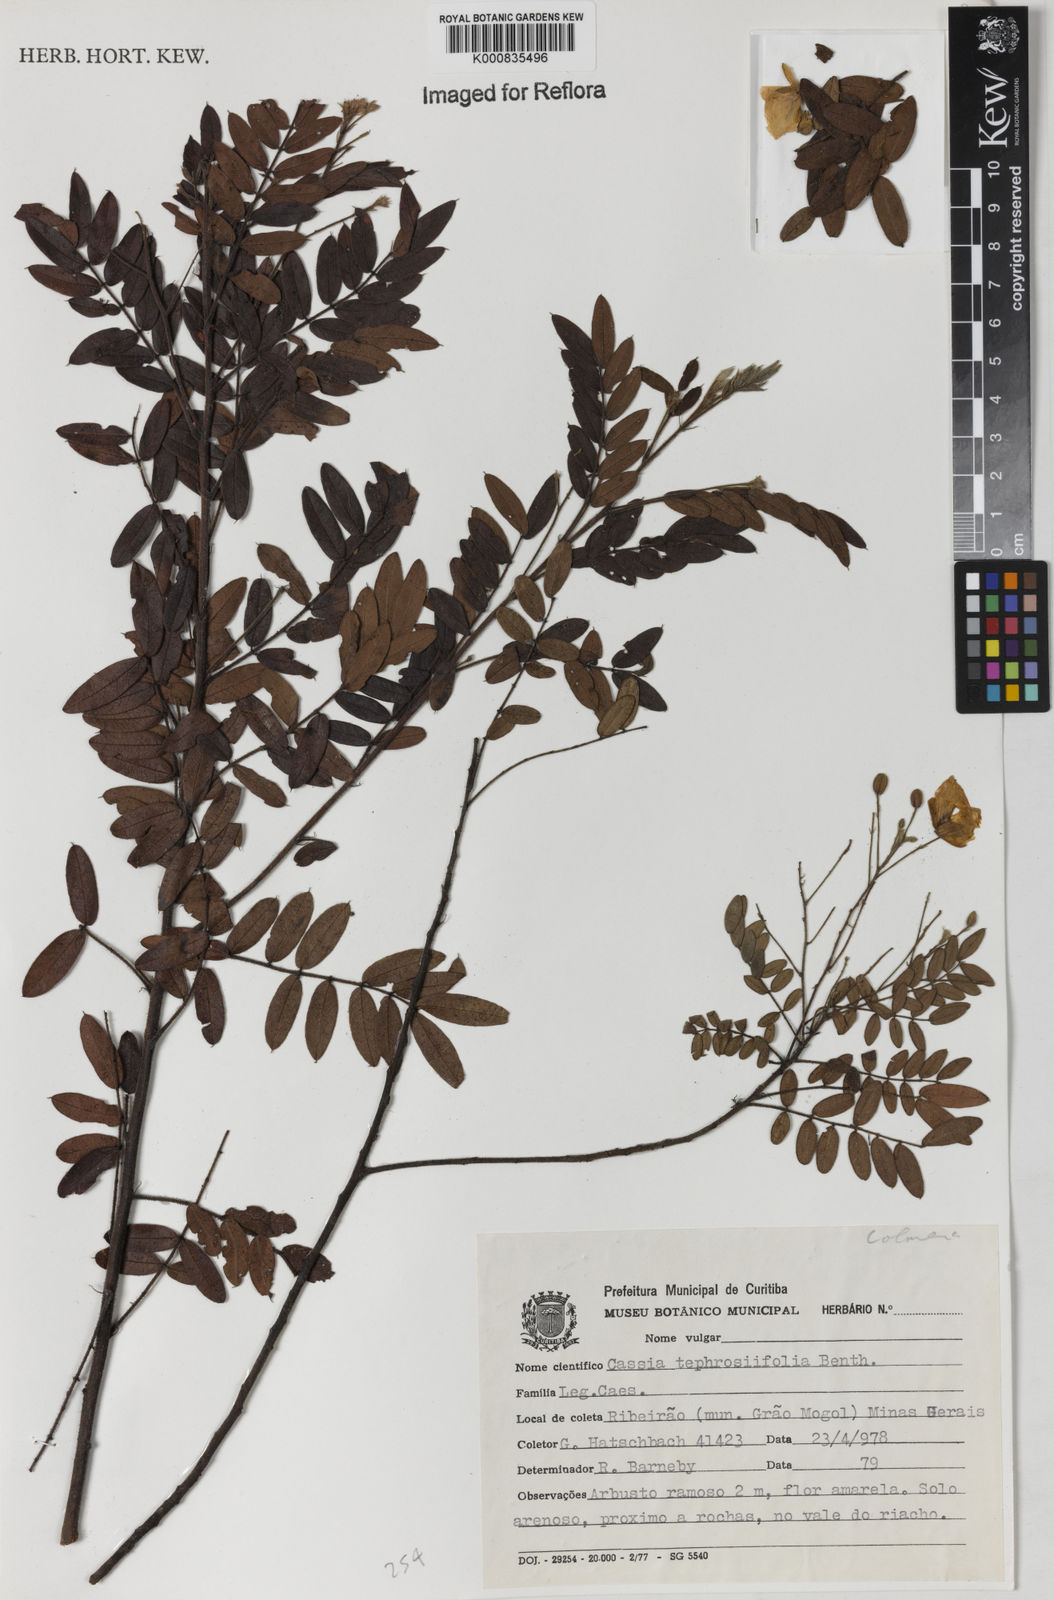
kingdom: Plantae
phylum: Tracheophyta
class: Magnoliopsida
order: Fabales
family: Fabaceae
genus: Chamaecrista
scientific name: Chamaecrista tephrosiifolia
